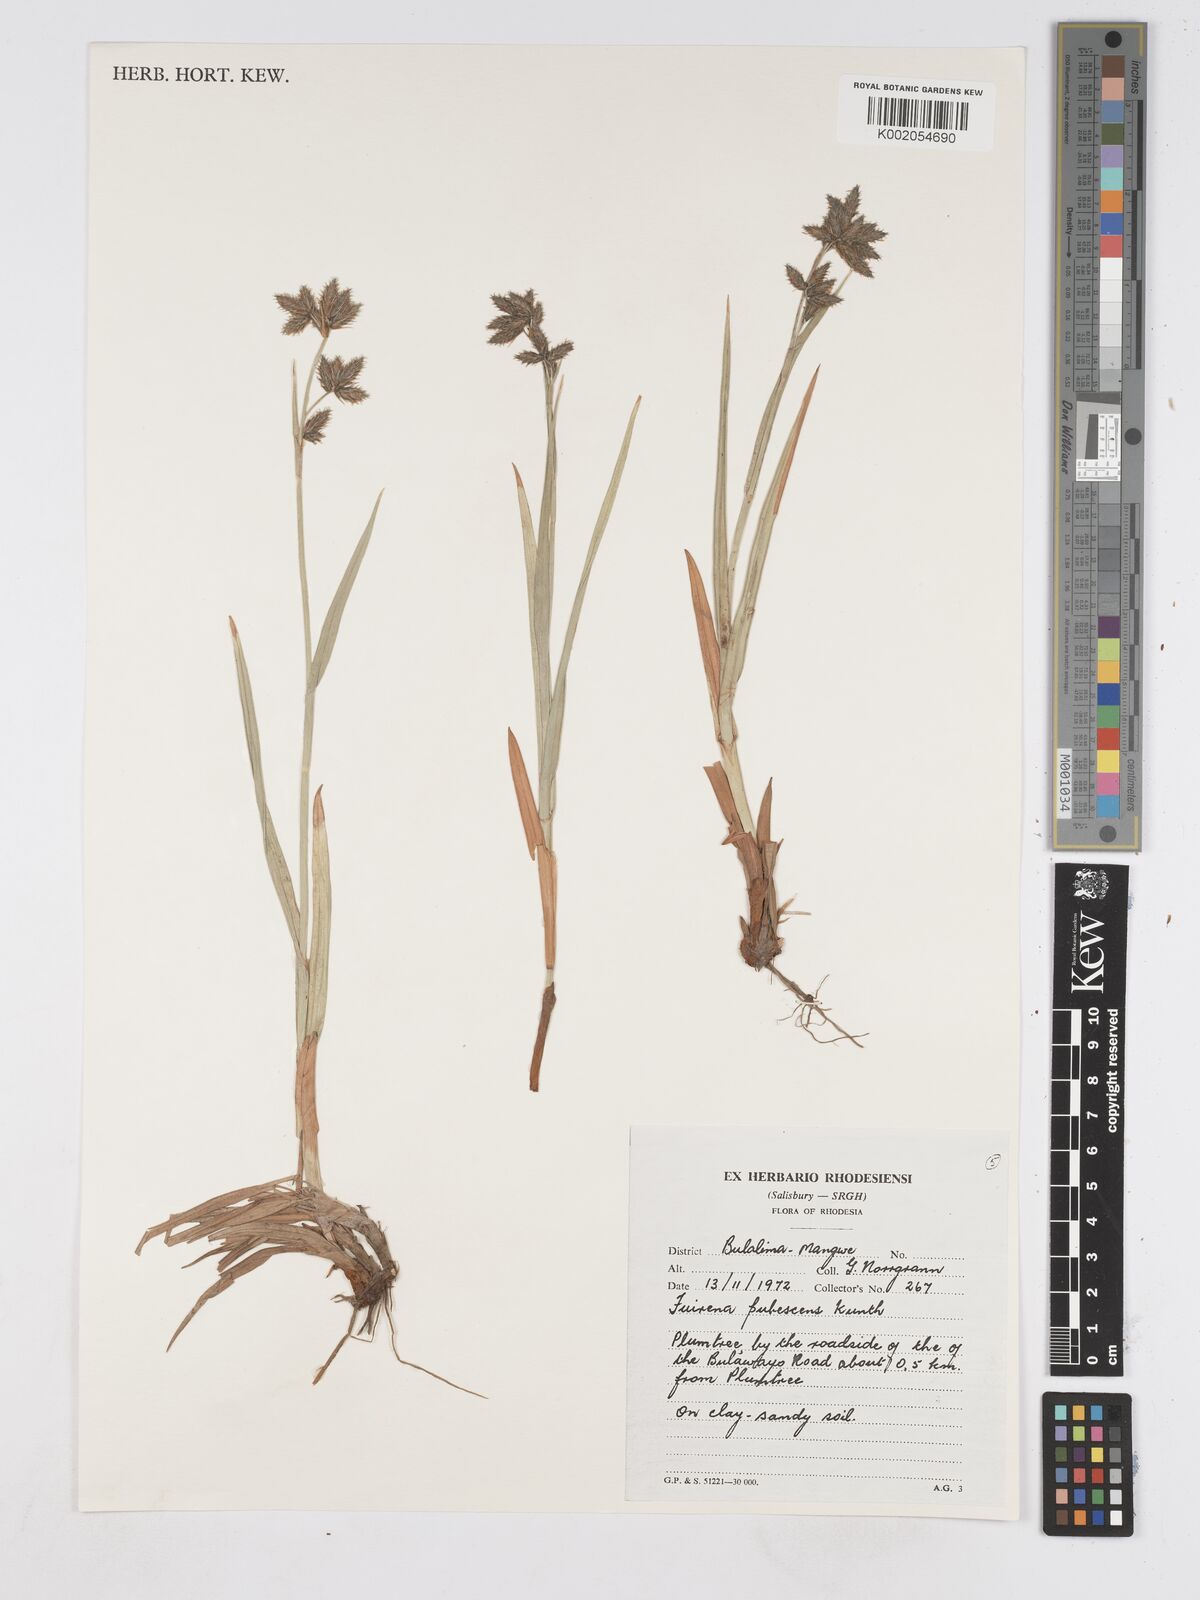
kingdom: Plantae
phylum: Tracheophyta
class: Liliopsida
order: Poales
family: Cyperaceae
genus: Fuirena
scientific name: Fuirena pachyrrhiza
